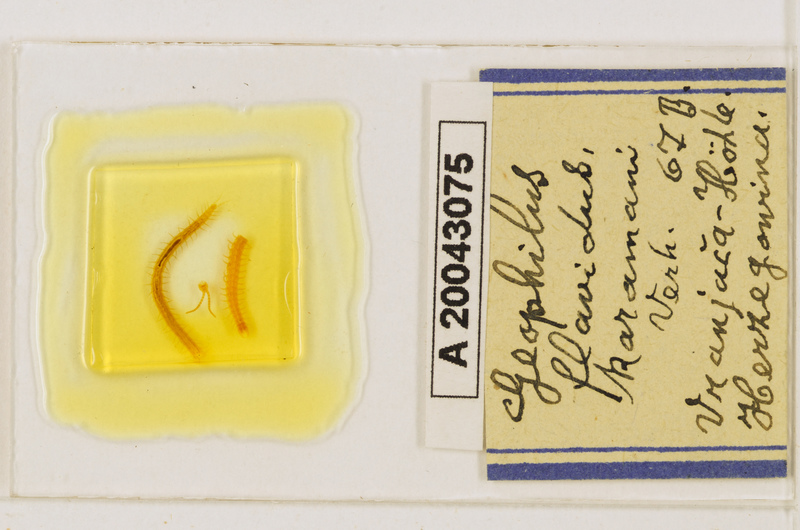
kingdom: Animalia
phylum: Arthropoda
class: Chilopoda
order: Geophilomorpha
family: Geophilidae
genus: Clinopodes
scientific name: Clinopodes flavidus
